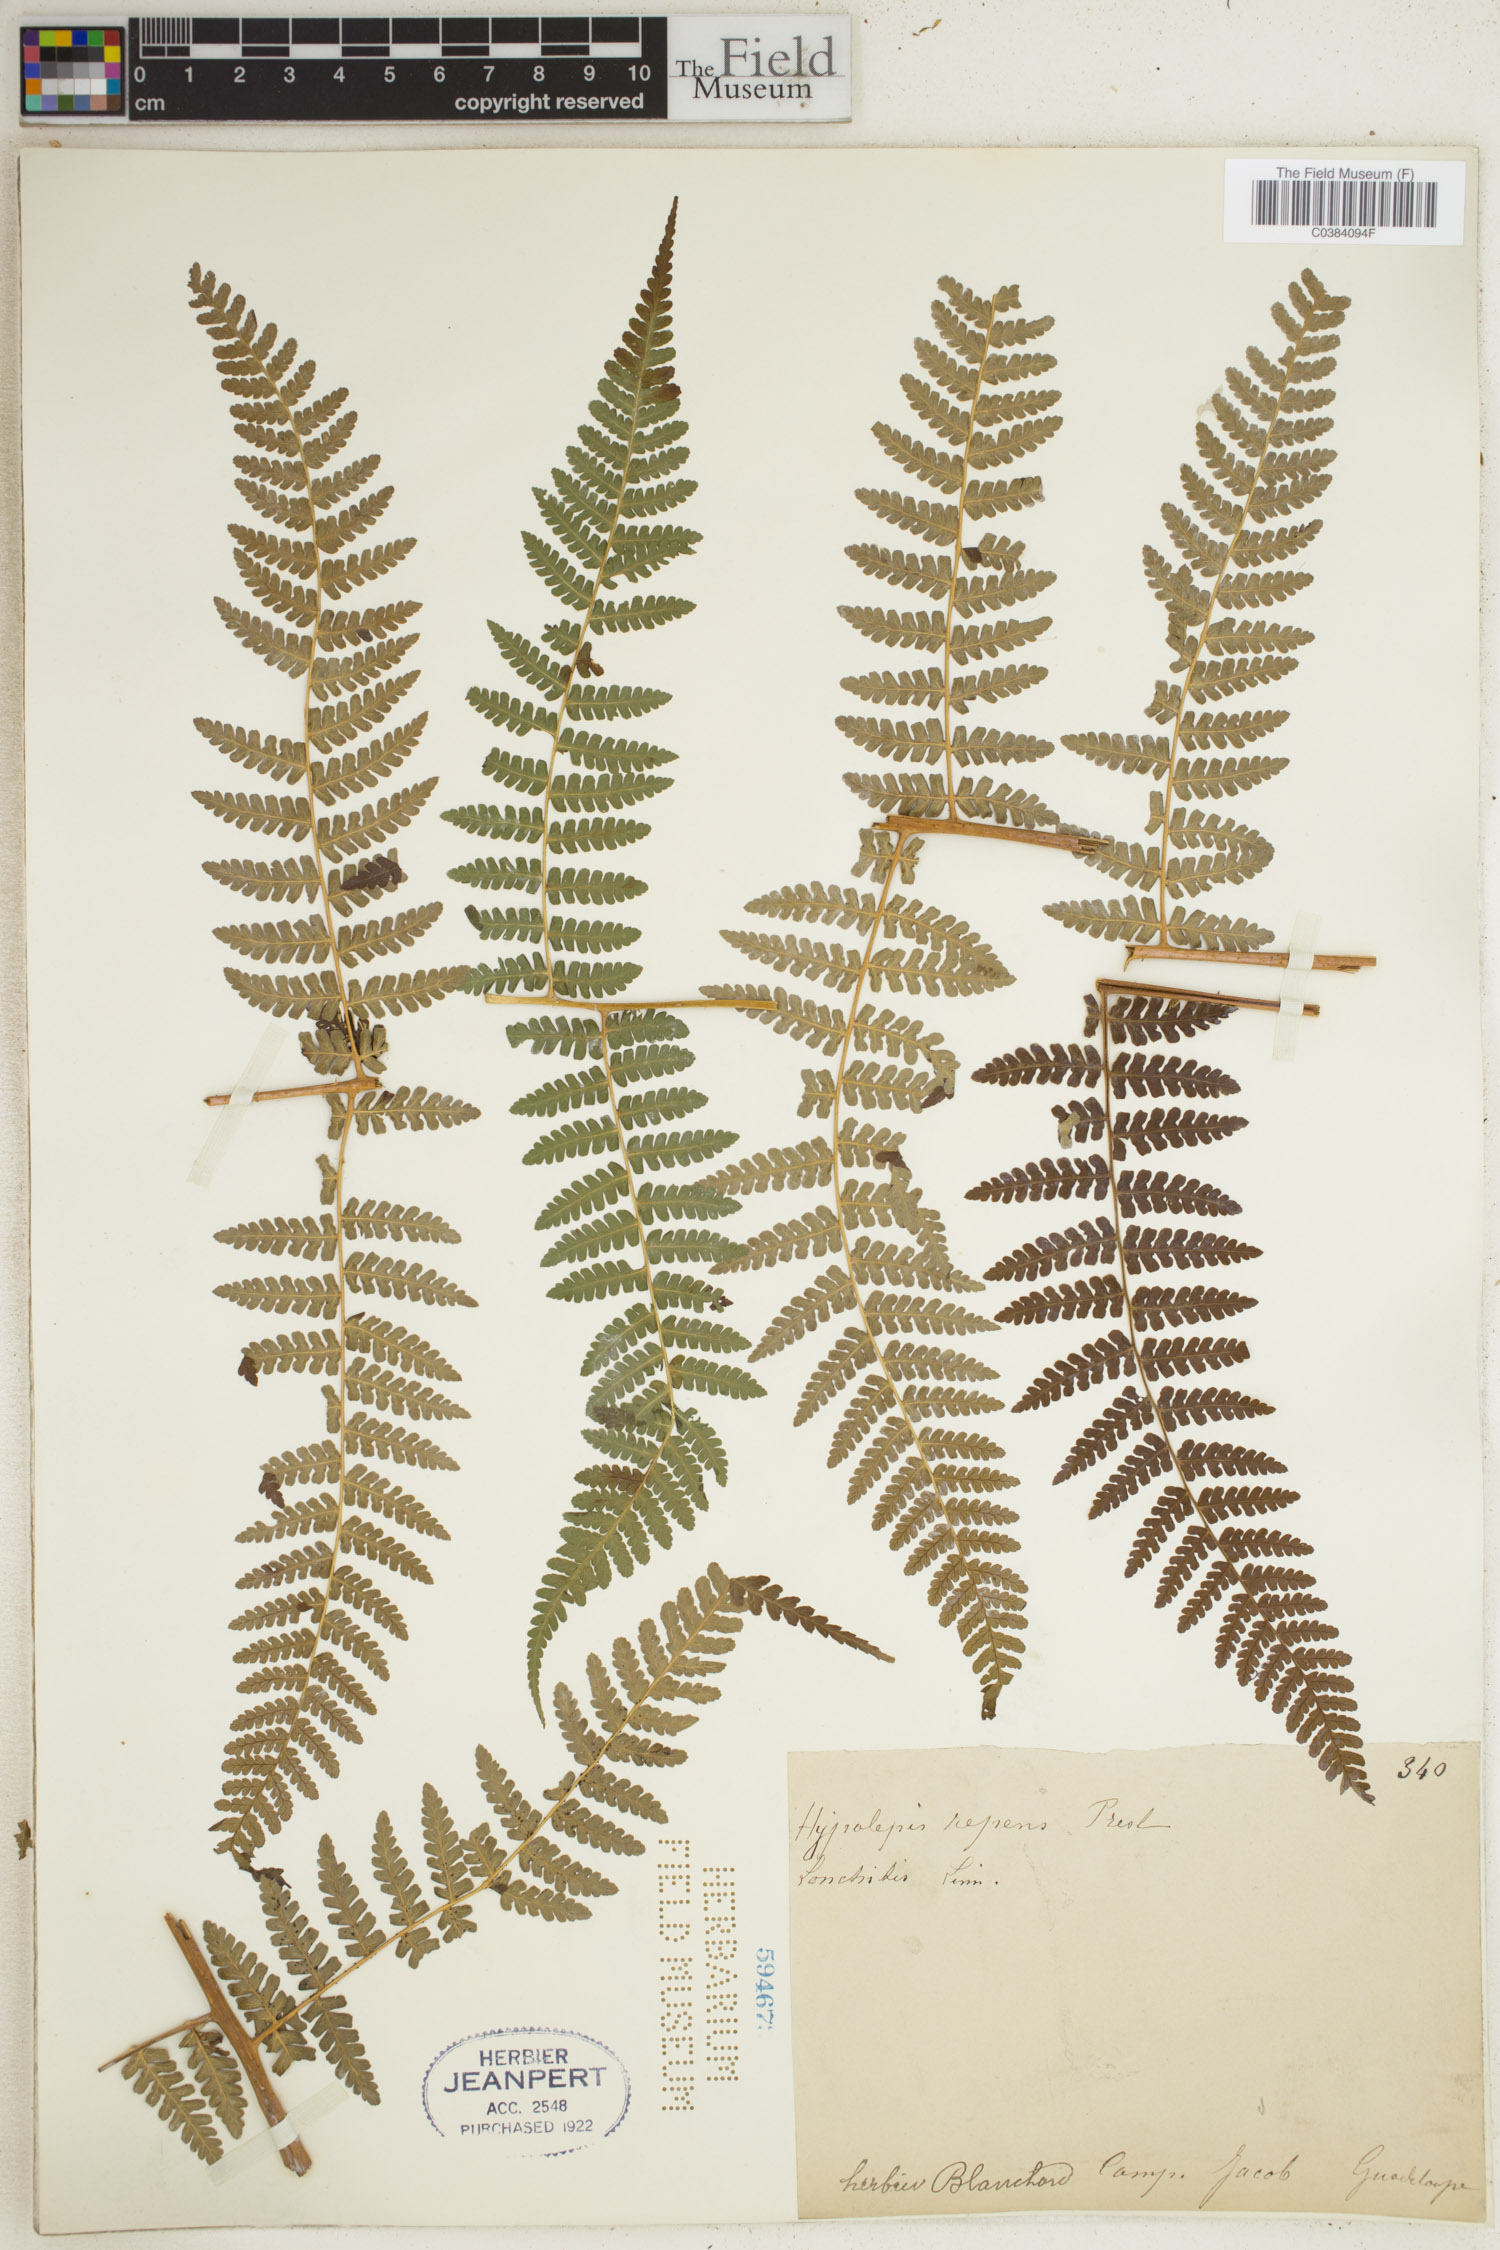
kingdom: Plantae
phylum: Tracheophyta
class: Polypodiopsida
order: Polypodiales
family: Dennstaedtiaceae
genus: Hypolepis
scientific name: Hypolepis repens
